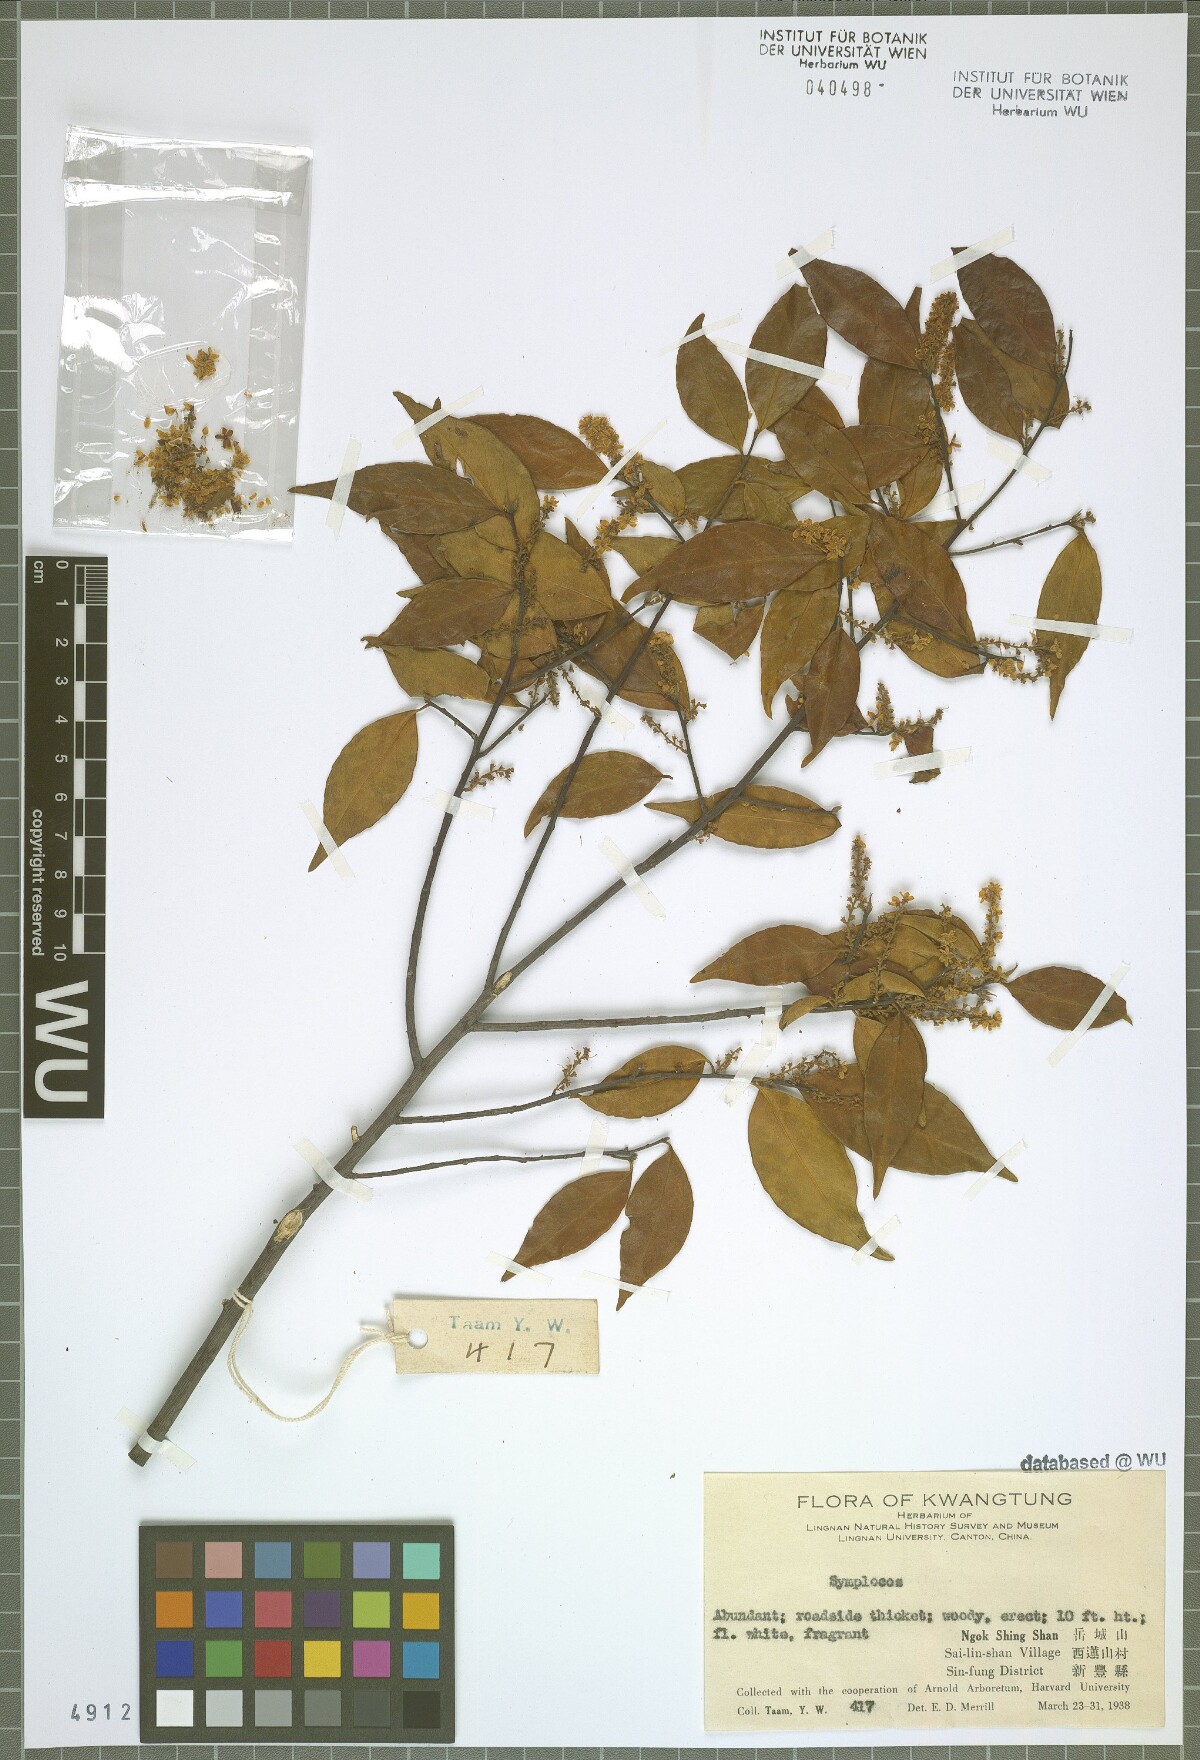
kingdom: Plantae
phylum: Tracheophyta
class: Magnoliopsida
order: Ericales
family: Symplocaceae
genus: Symplocos
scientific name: Symplocos
